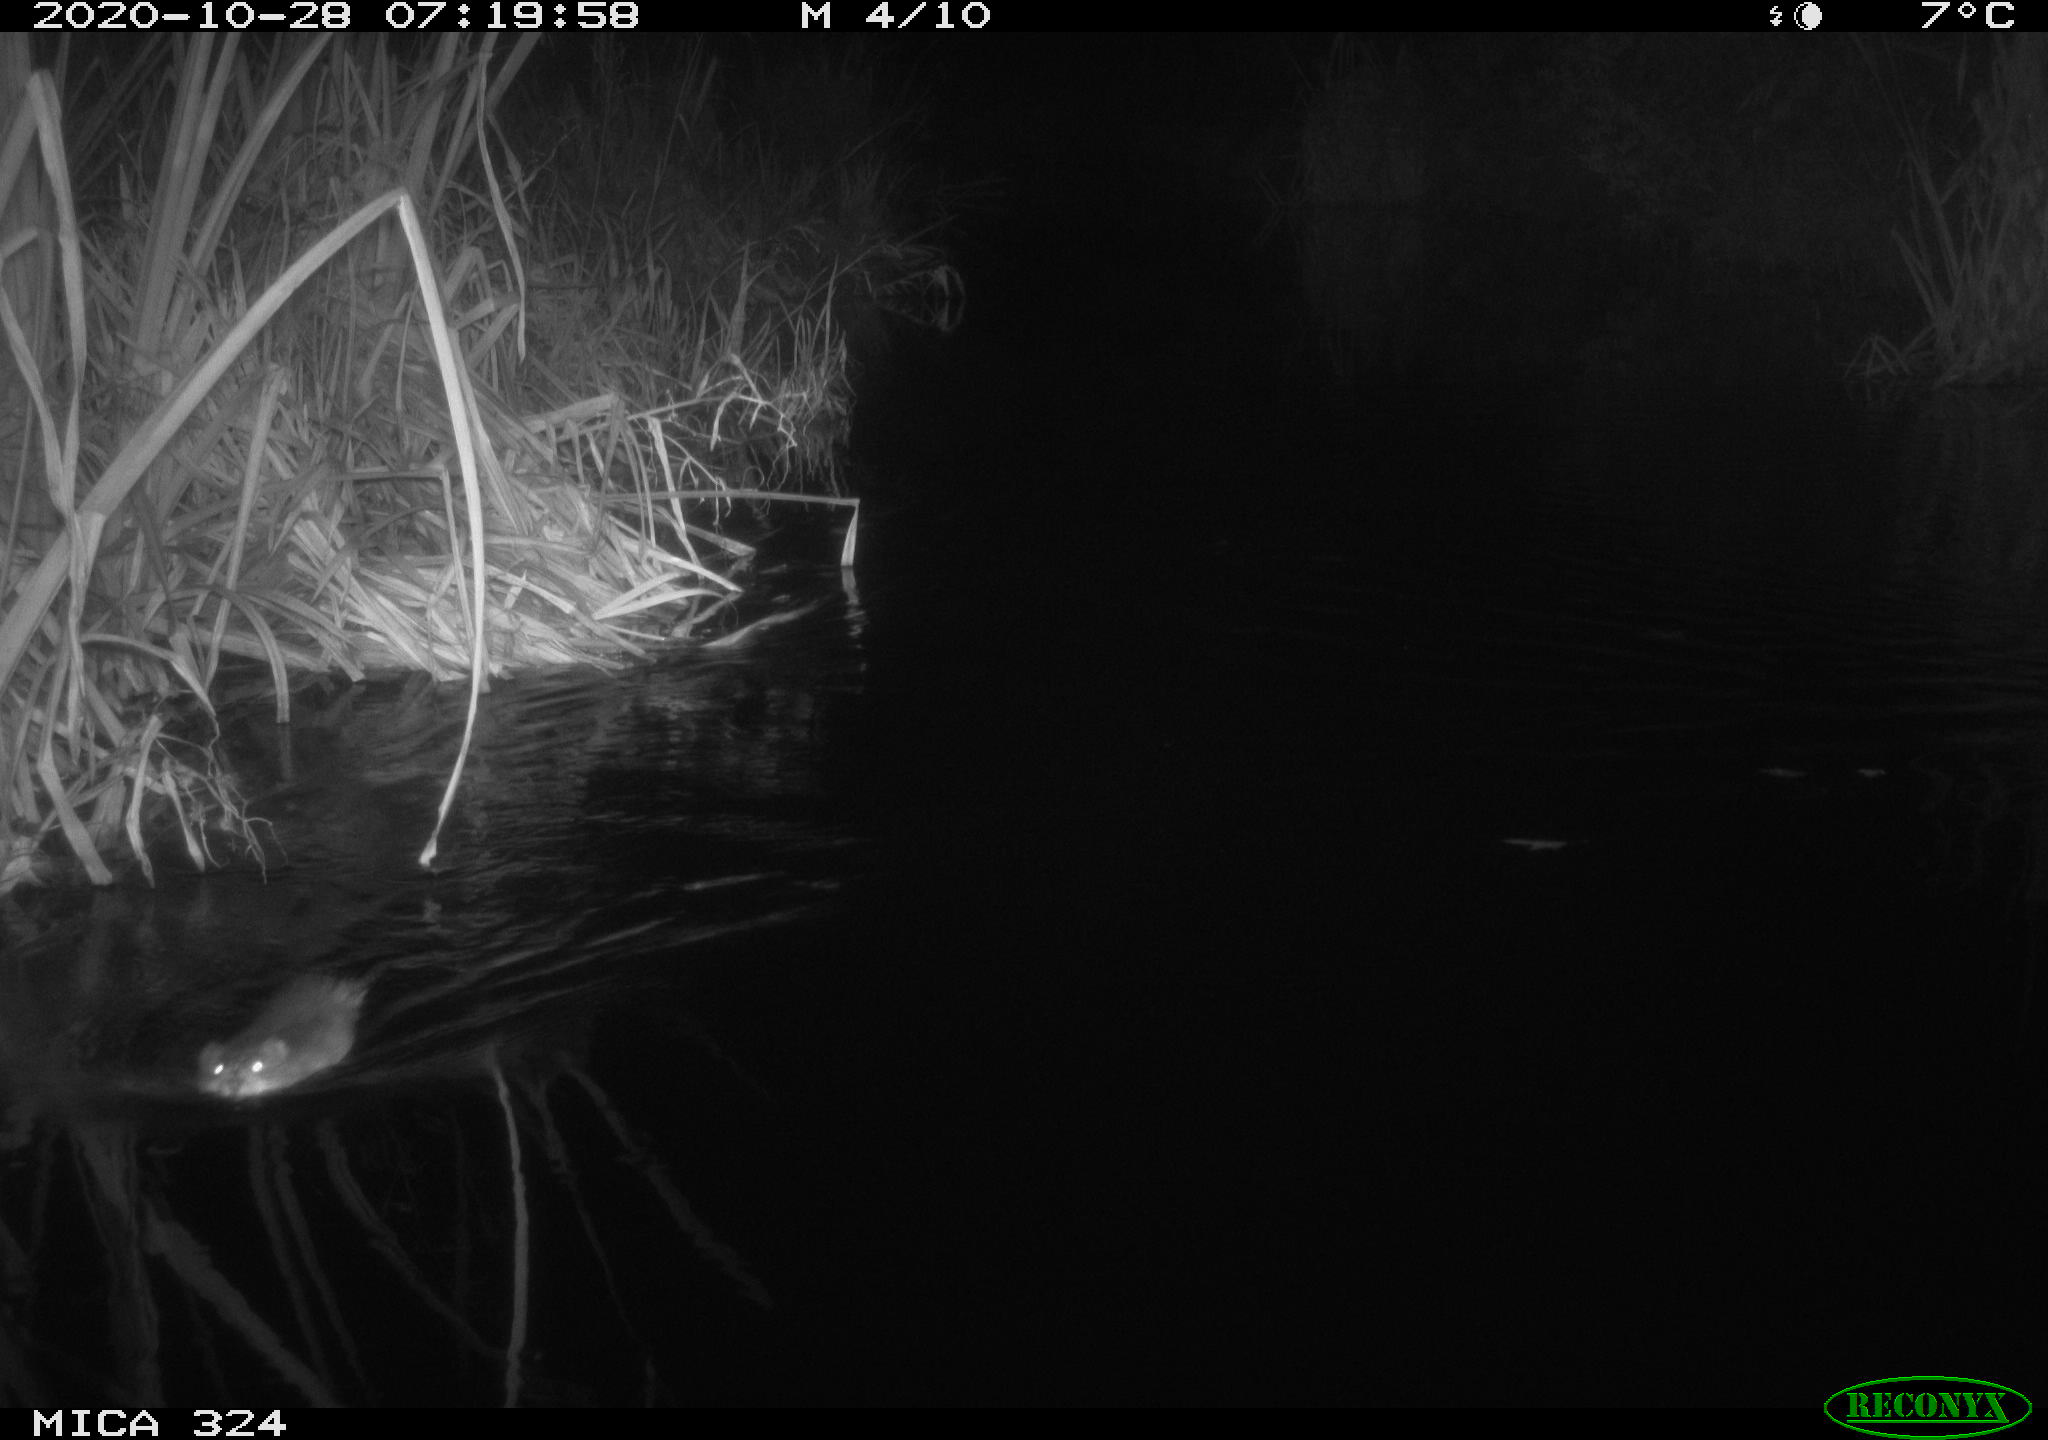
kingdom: Animalia
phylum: Chordata
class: Mammalia
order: Rodentia
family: Muridae
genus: Rattus
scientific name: Rattus norvegicus
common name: Brown rat
